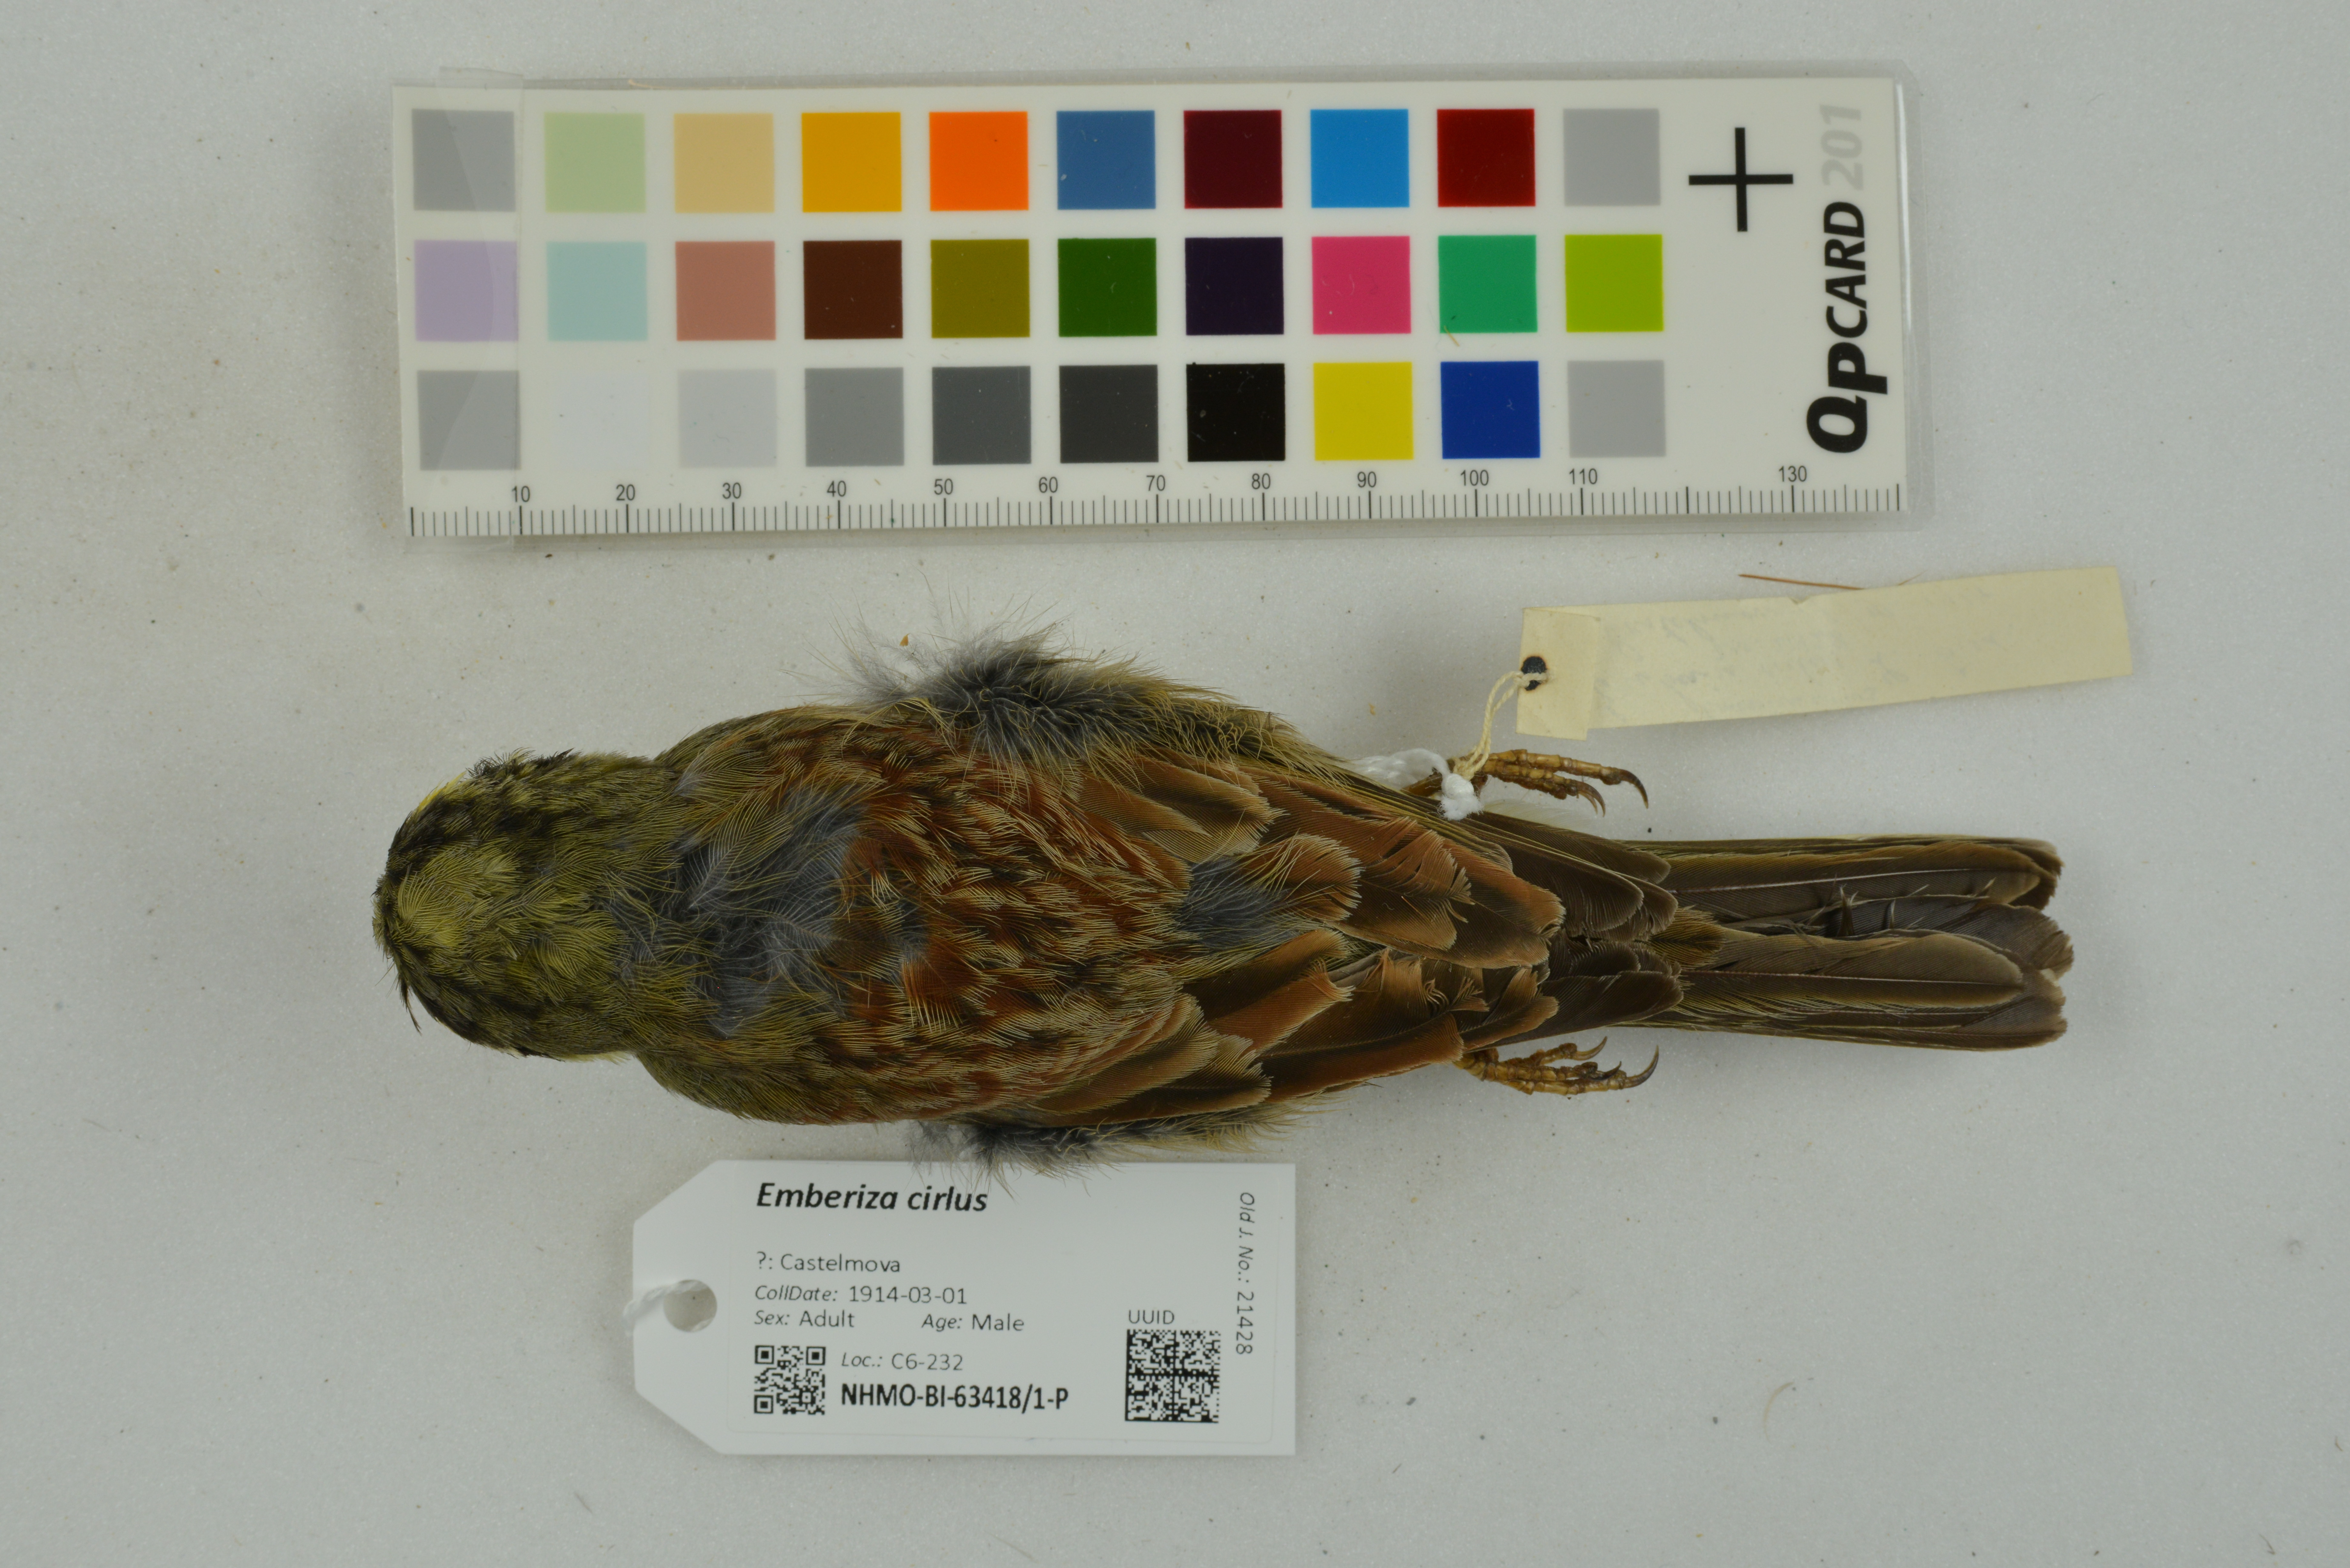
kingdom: Animalia
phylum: Chordata
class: Aves
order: Passeriformes
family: Emberizidae
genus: Emberiza
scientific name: Emberiza cirlus
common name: Cirl bunting
